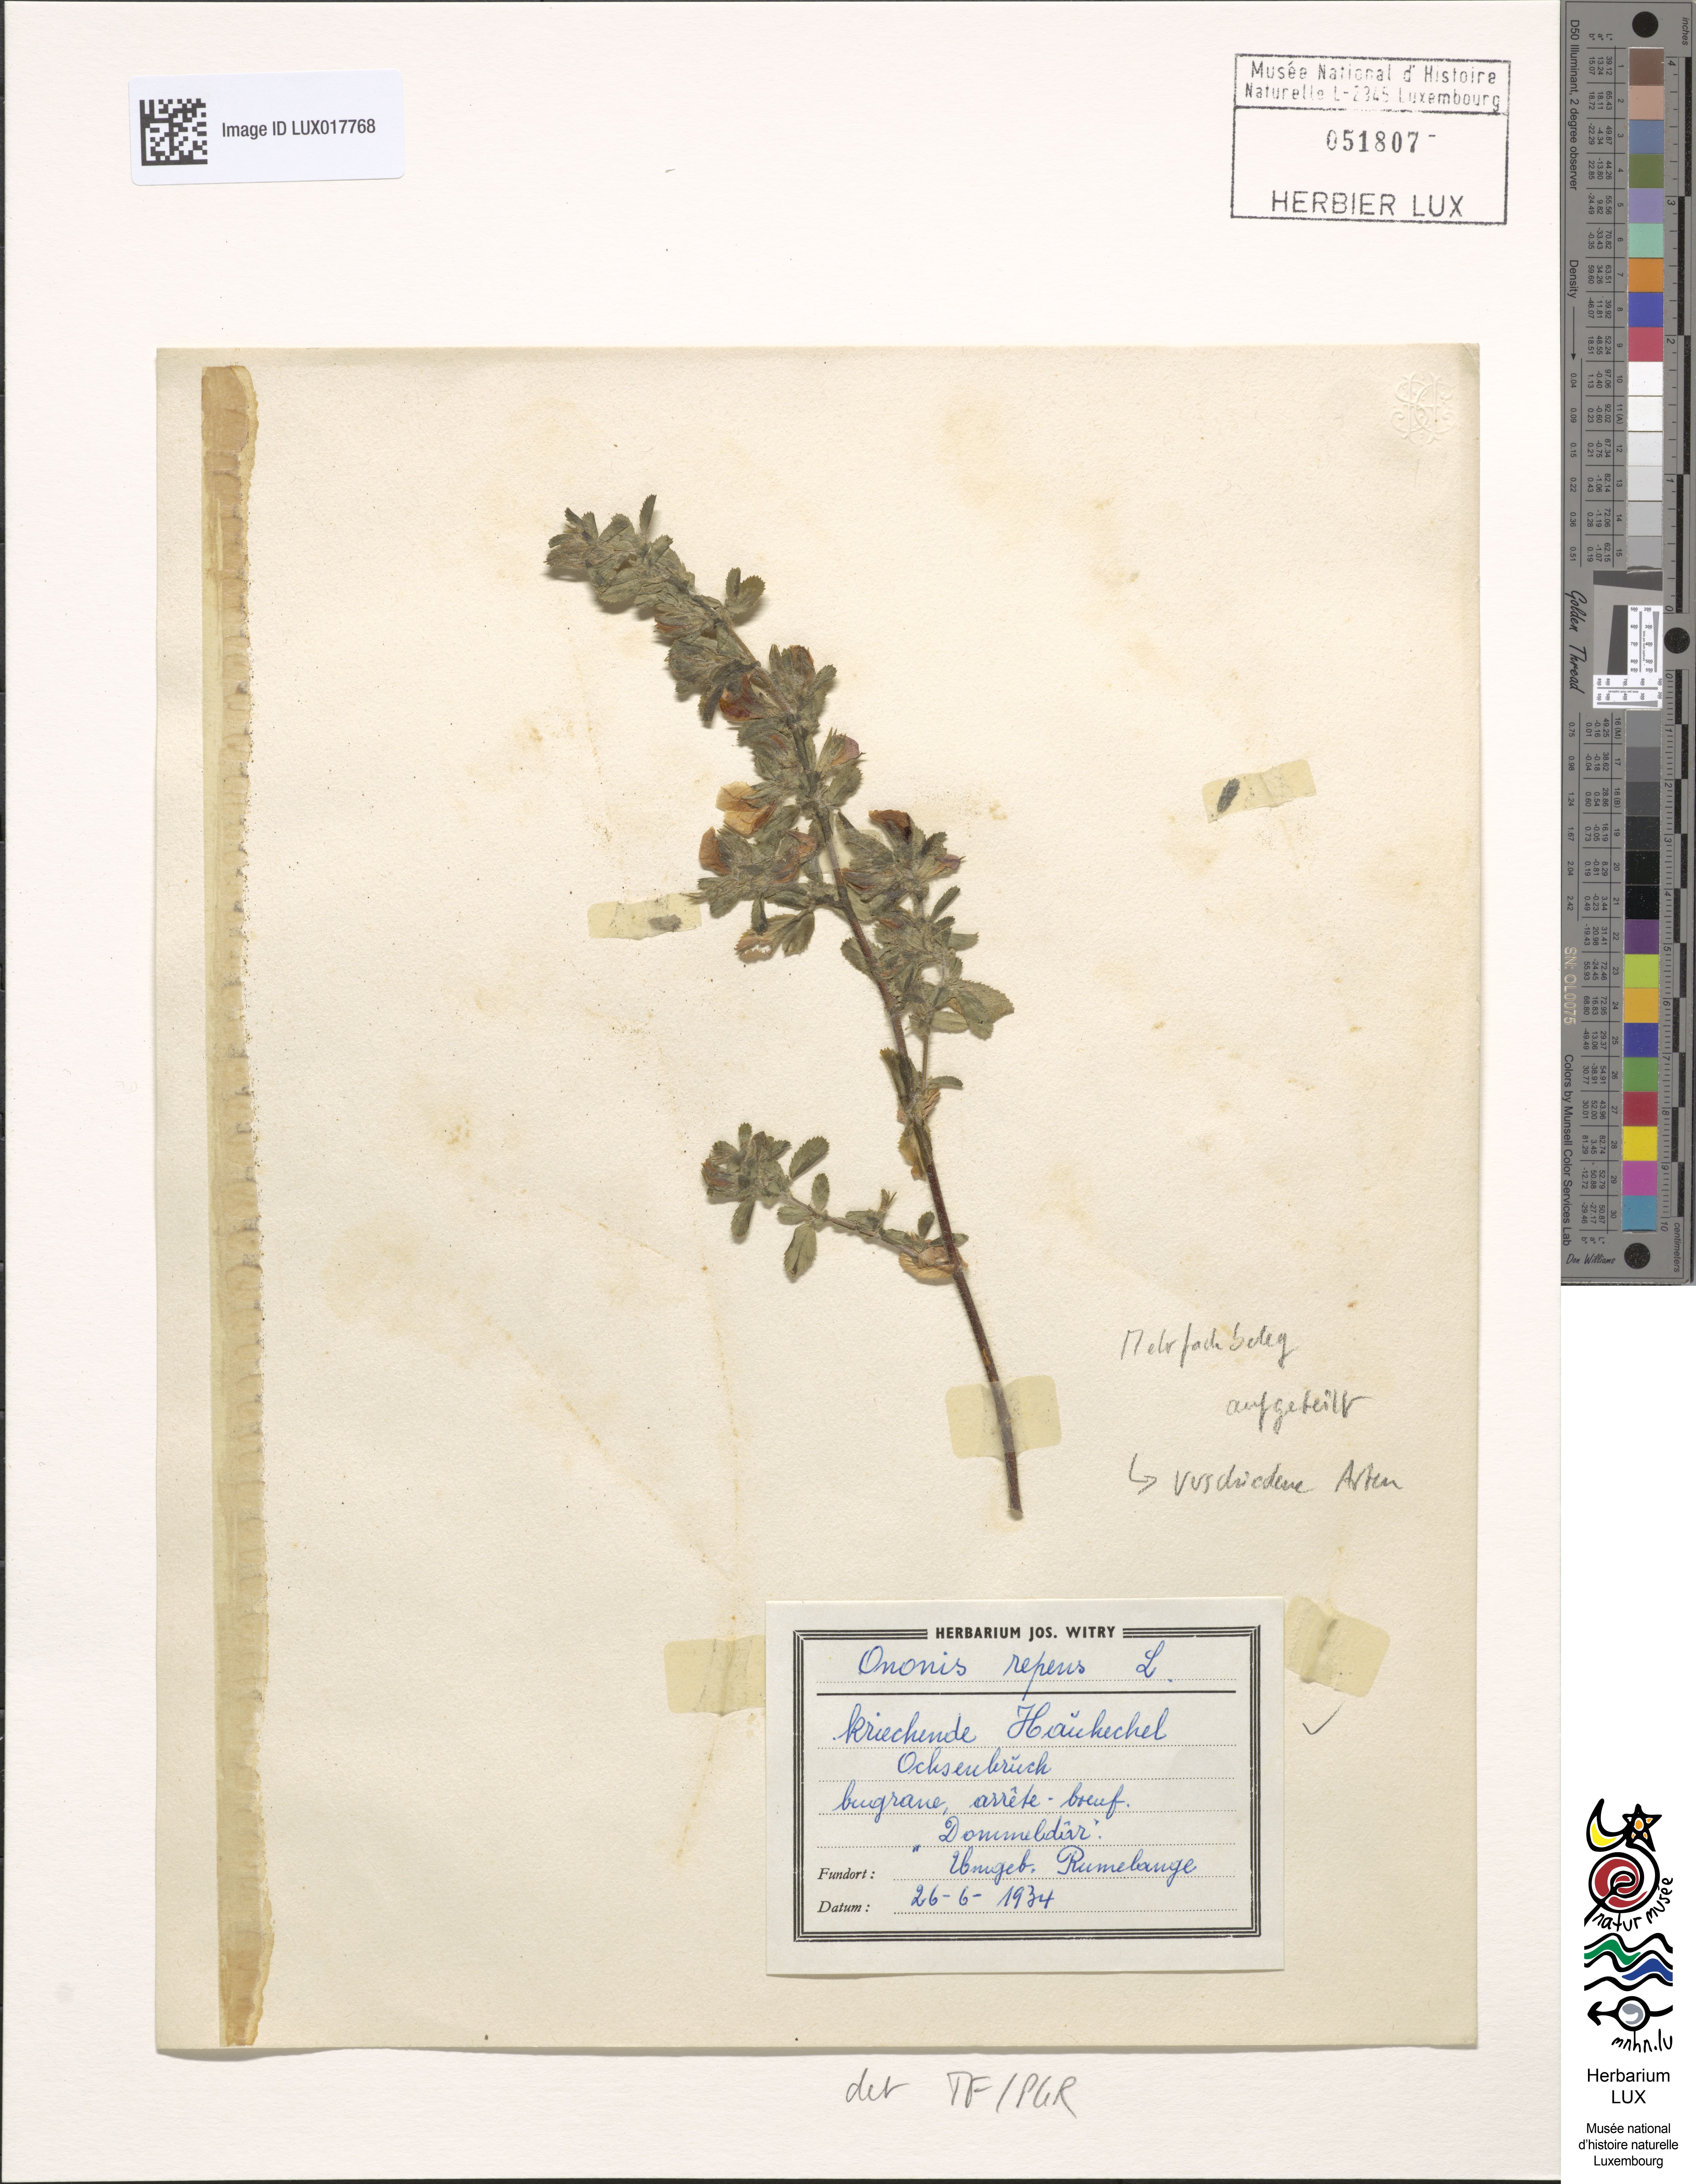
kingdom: Plantae
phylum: Tracheophyta
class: Magnoliopsida
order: Fabales
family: Fabaceae
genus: Ononis
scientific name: Ononis spinosa
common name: Spiny restharrow
